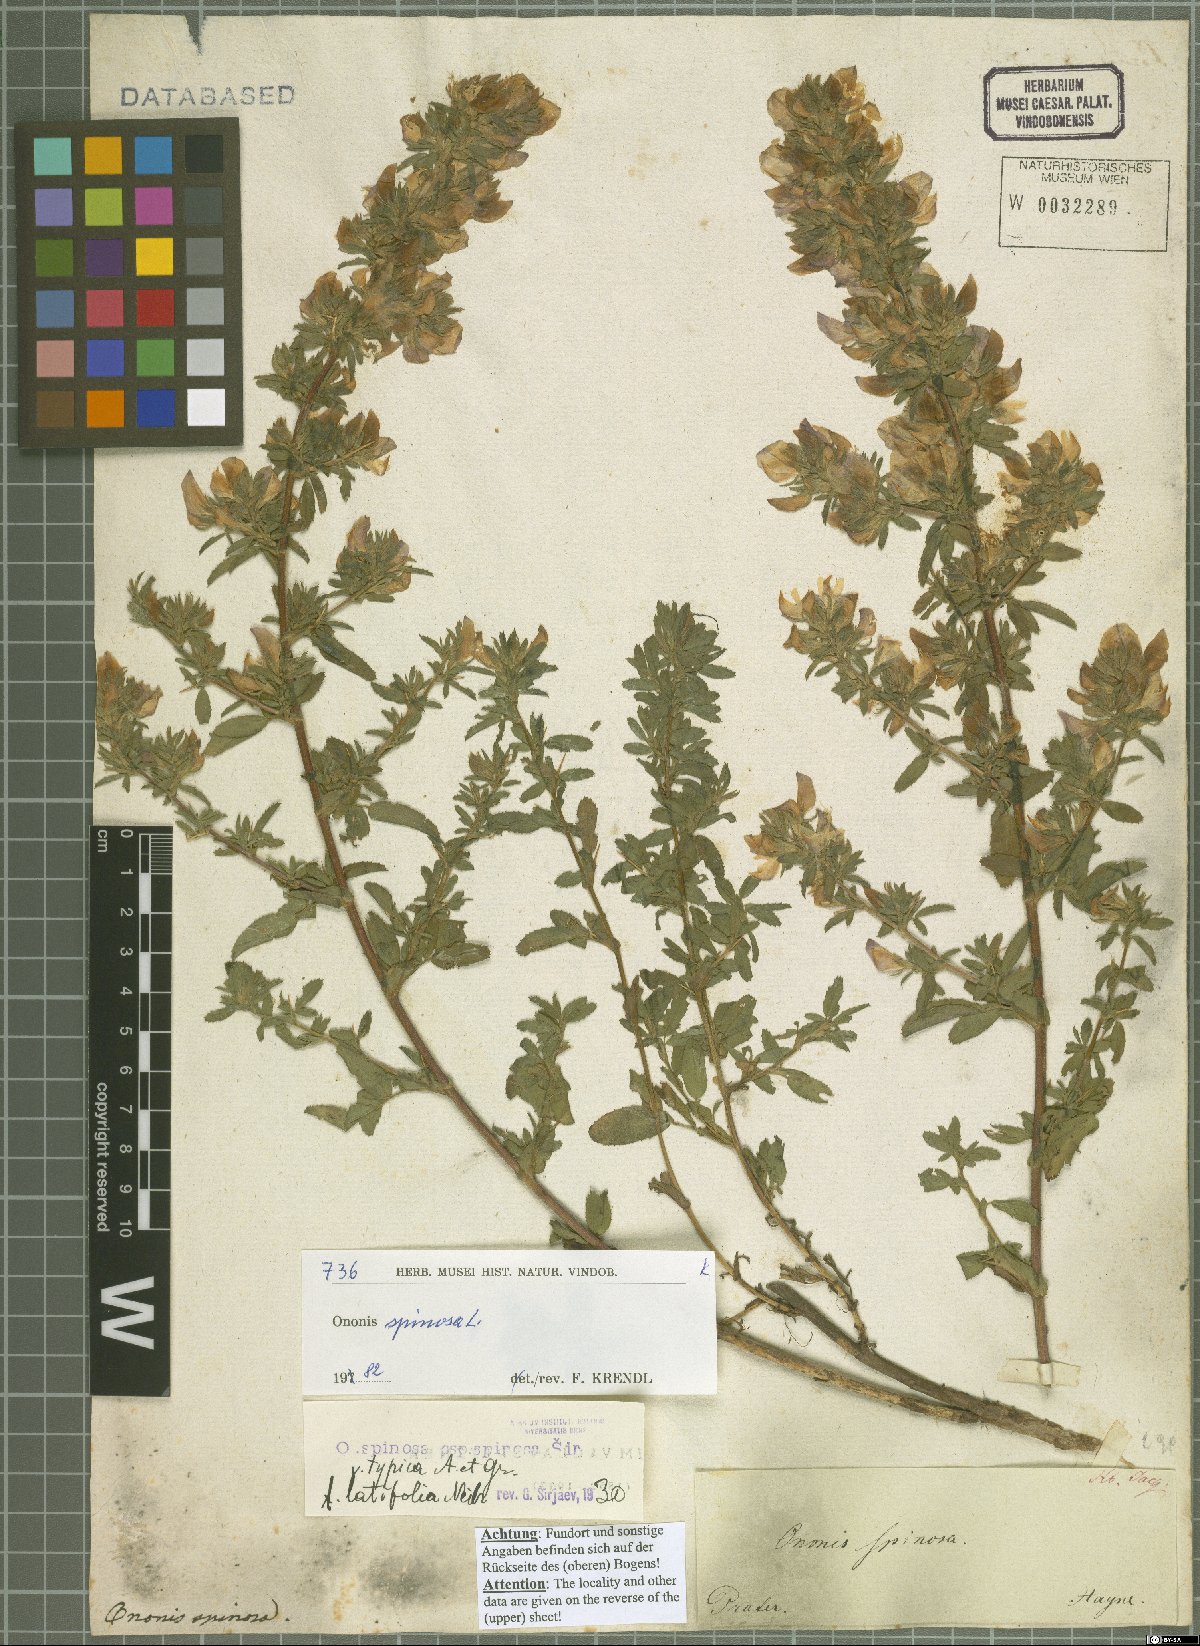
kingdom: Plantae
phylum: Tracheophyta
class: Magnoliopsida
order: Fabales
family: Fabaceae
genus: Ononis
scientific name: Ononis spinosa
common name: Spiny restharrow
